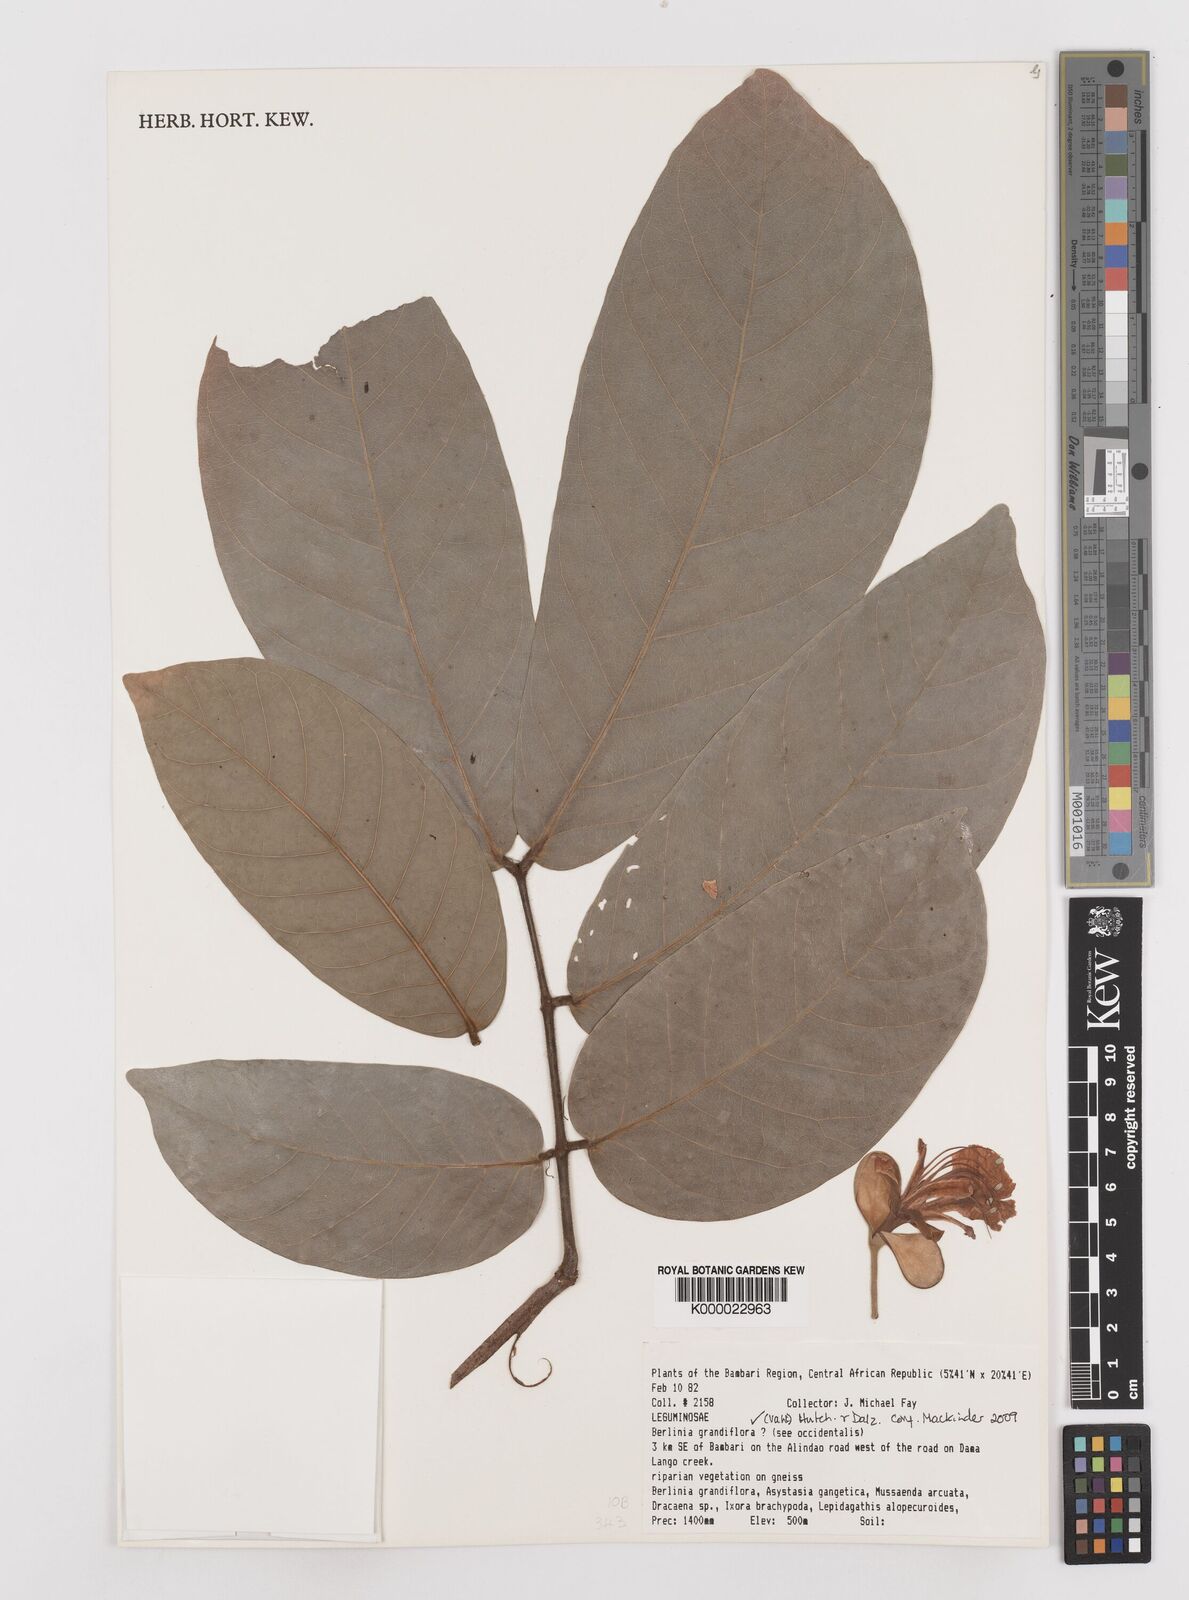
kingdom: Plantae
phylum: Tracheophyta
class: Magnoliopsida
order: Fabales
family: Fabaceae
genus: Berlinia
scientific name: Berlinia grandiflora
